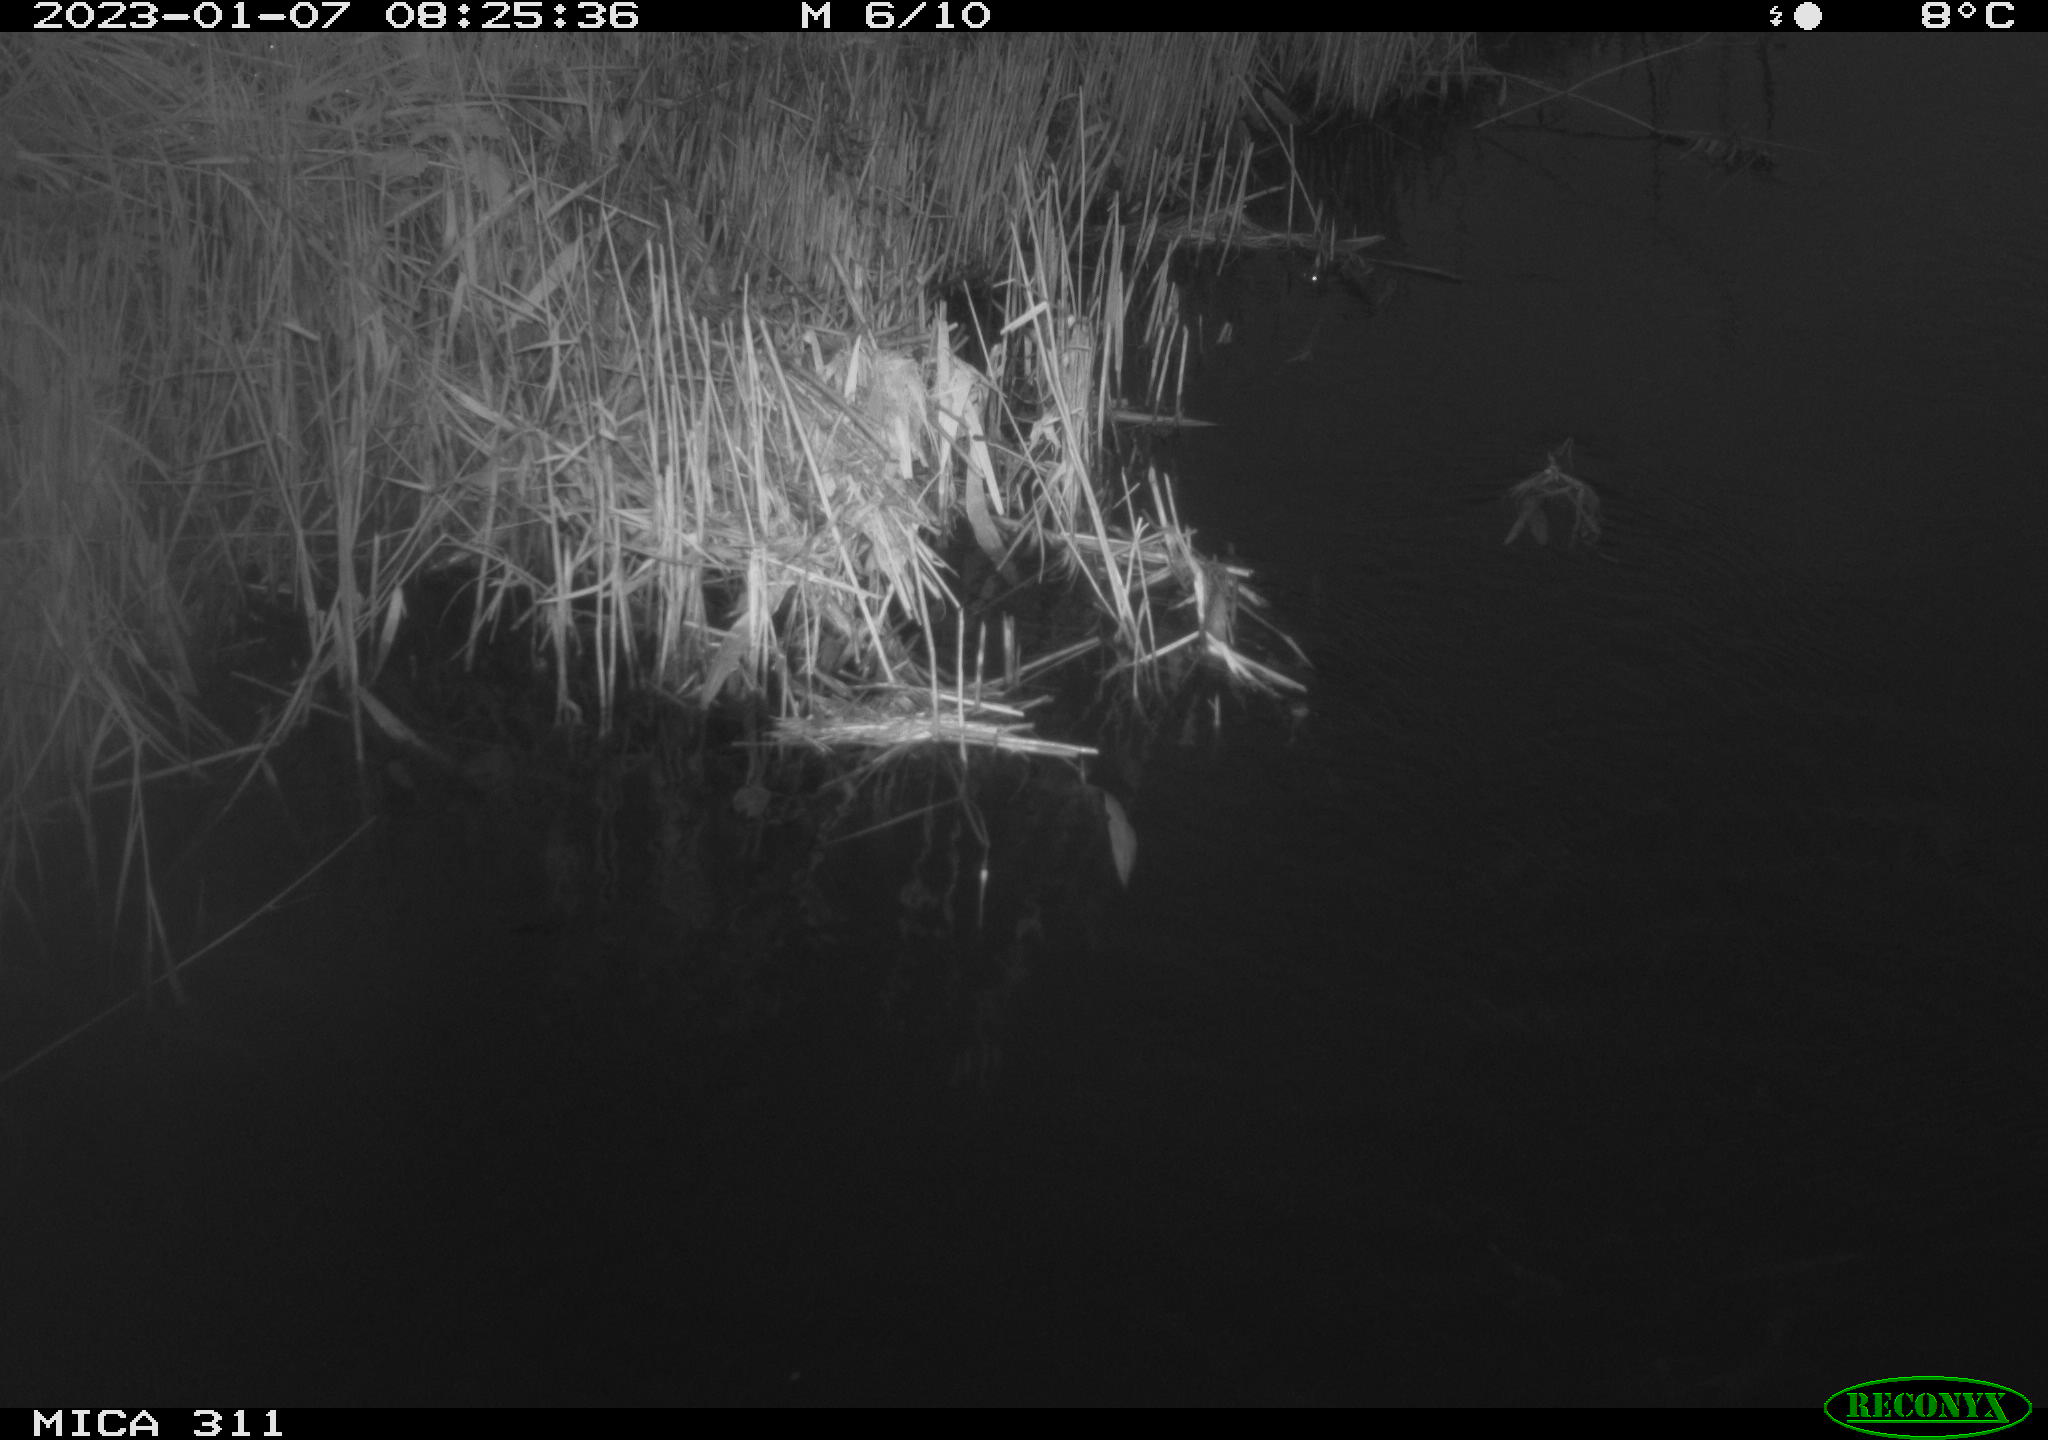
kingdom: Animalia
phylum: Chordata
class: Aves
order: Gruiformes
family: Rallidae
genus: Gallinula
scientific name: Gallinula chloropus
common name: Common moorhen
